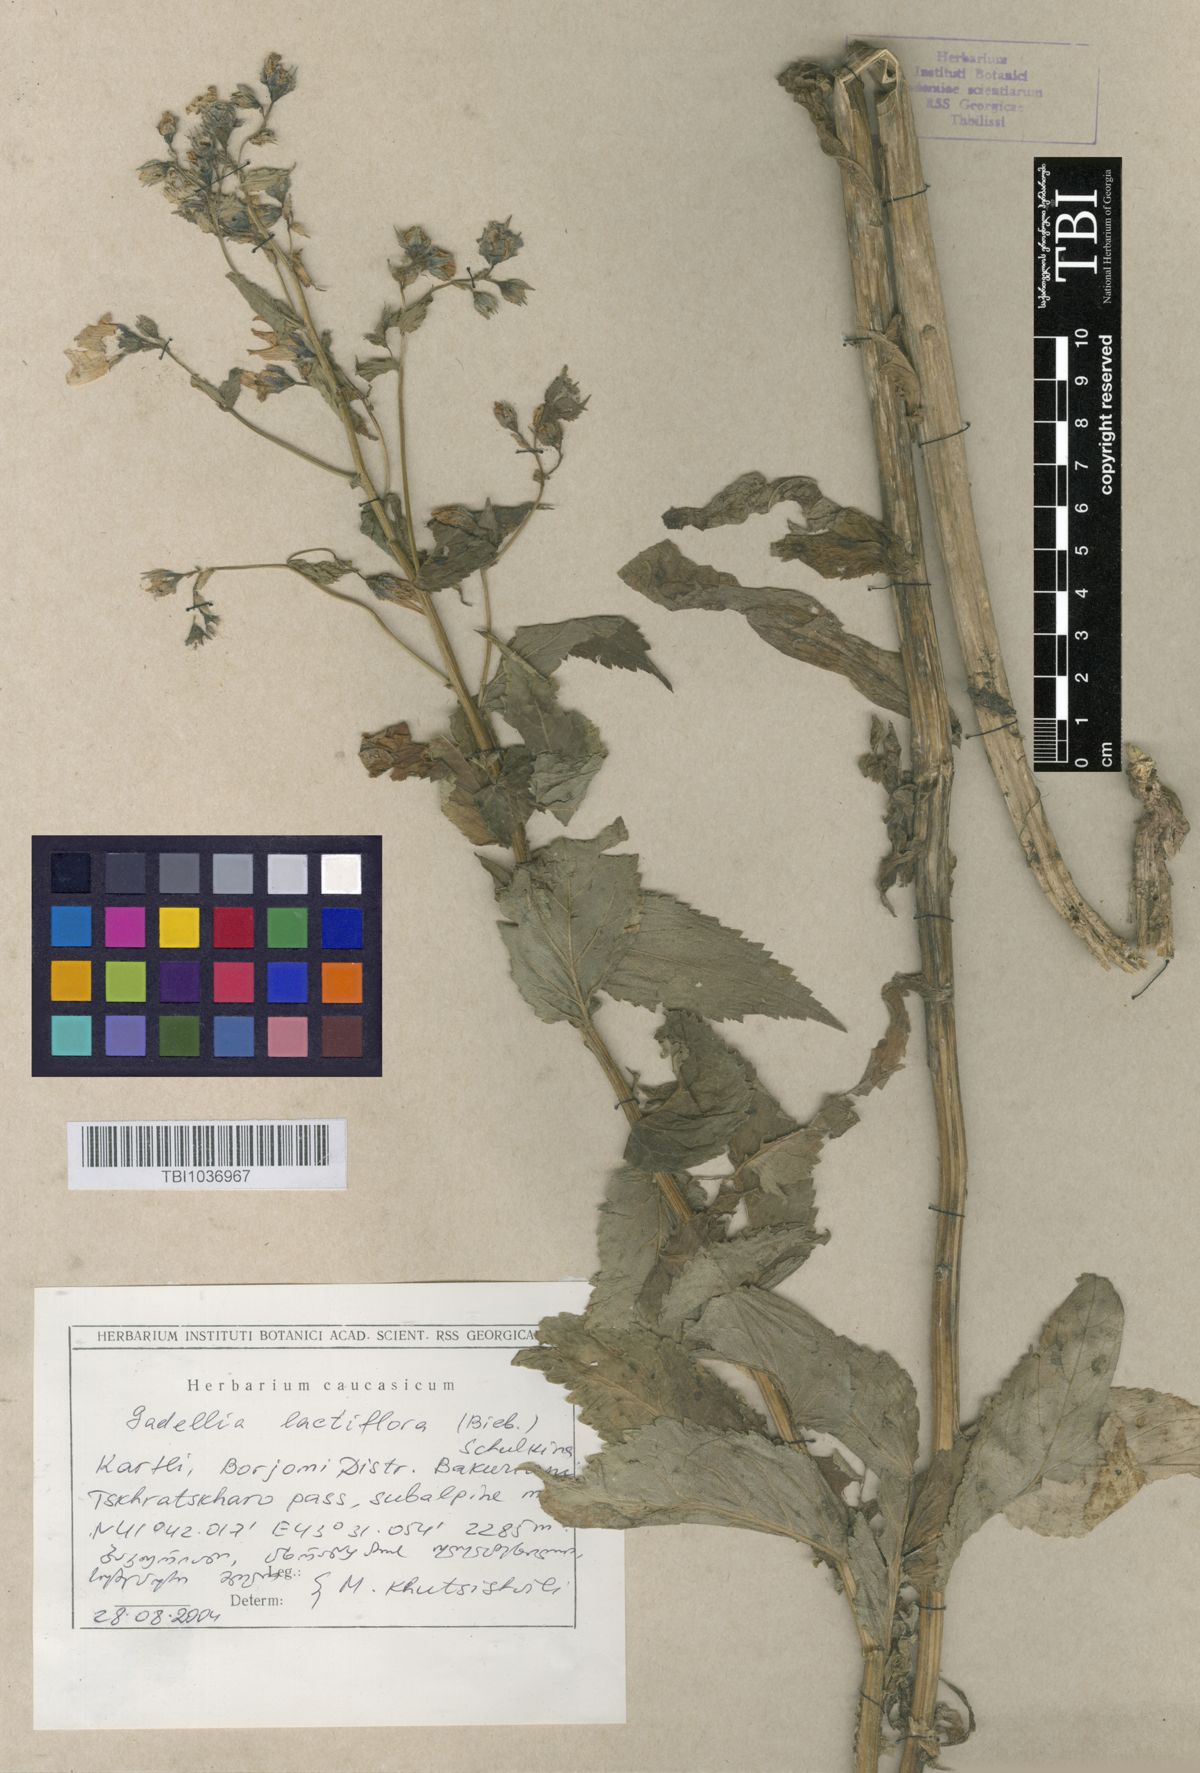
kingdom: Plantae
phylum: Tracheophyta
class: Magnoliopsida
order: Asterales
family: Campanulaceae
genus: Campanula
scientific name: Campanula lactiflora
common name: Milky bellflower
